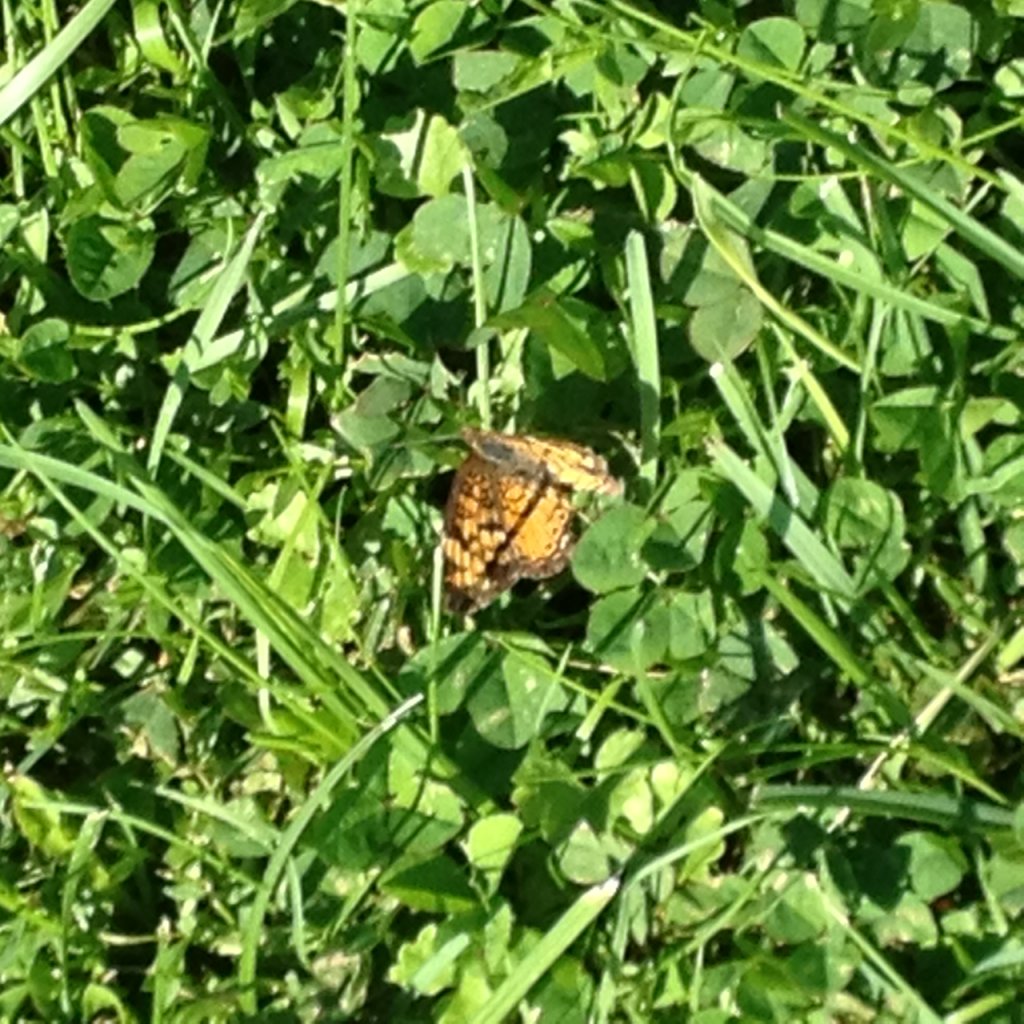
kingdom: Animalia
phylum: Arthropoda
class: Insecta
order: Lepidoptera
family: Nymphalidae
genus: Phyciodes
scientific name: Phyciodes
